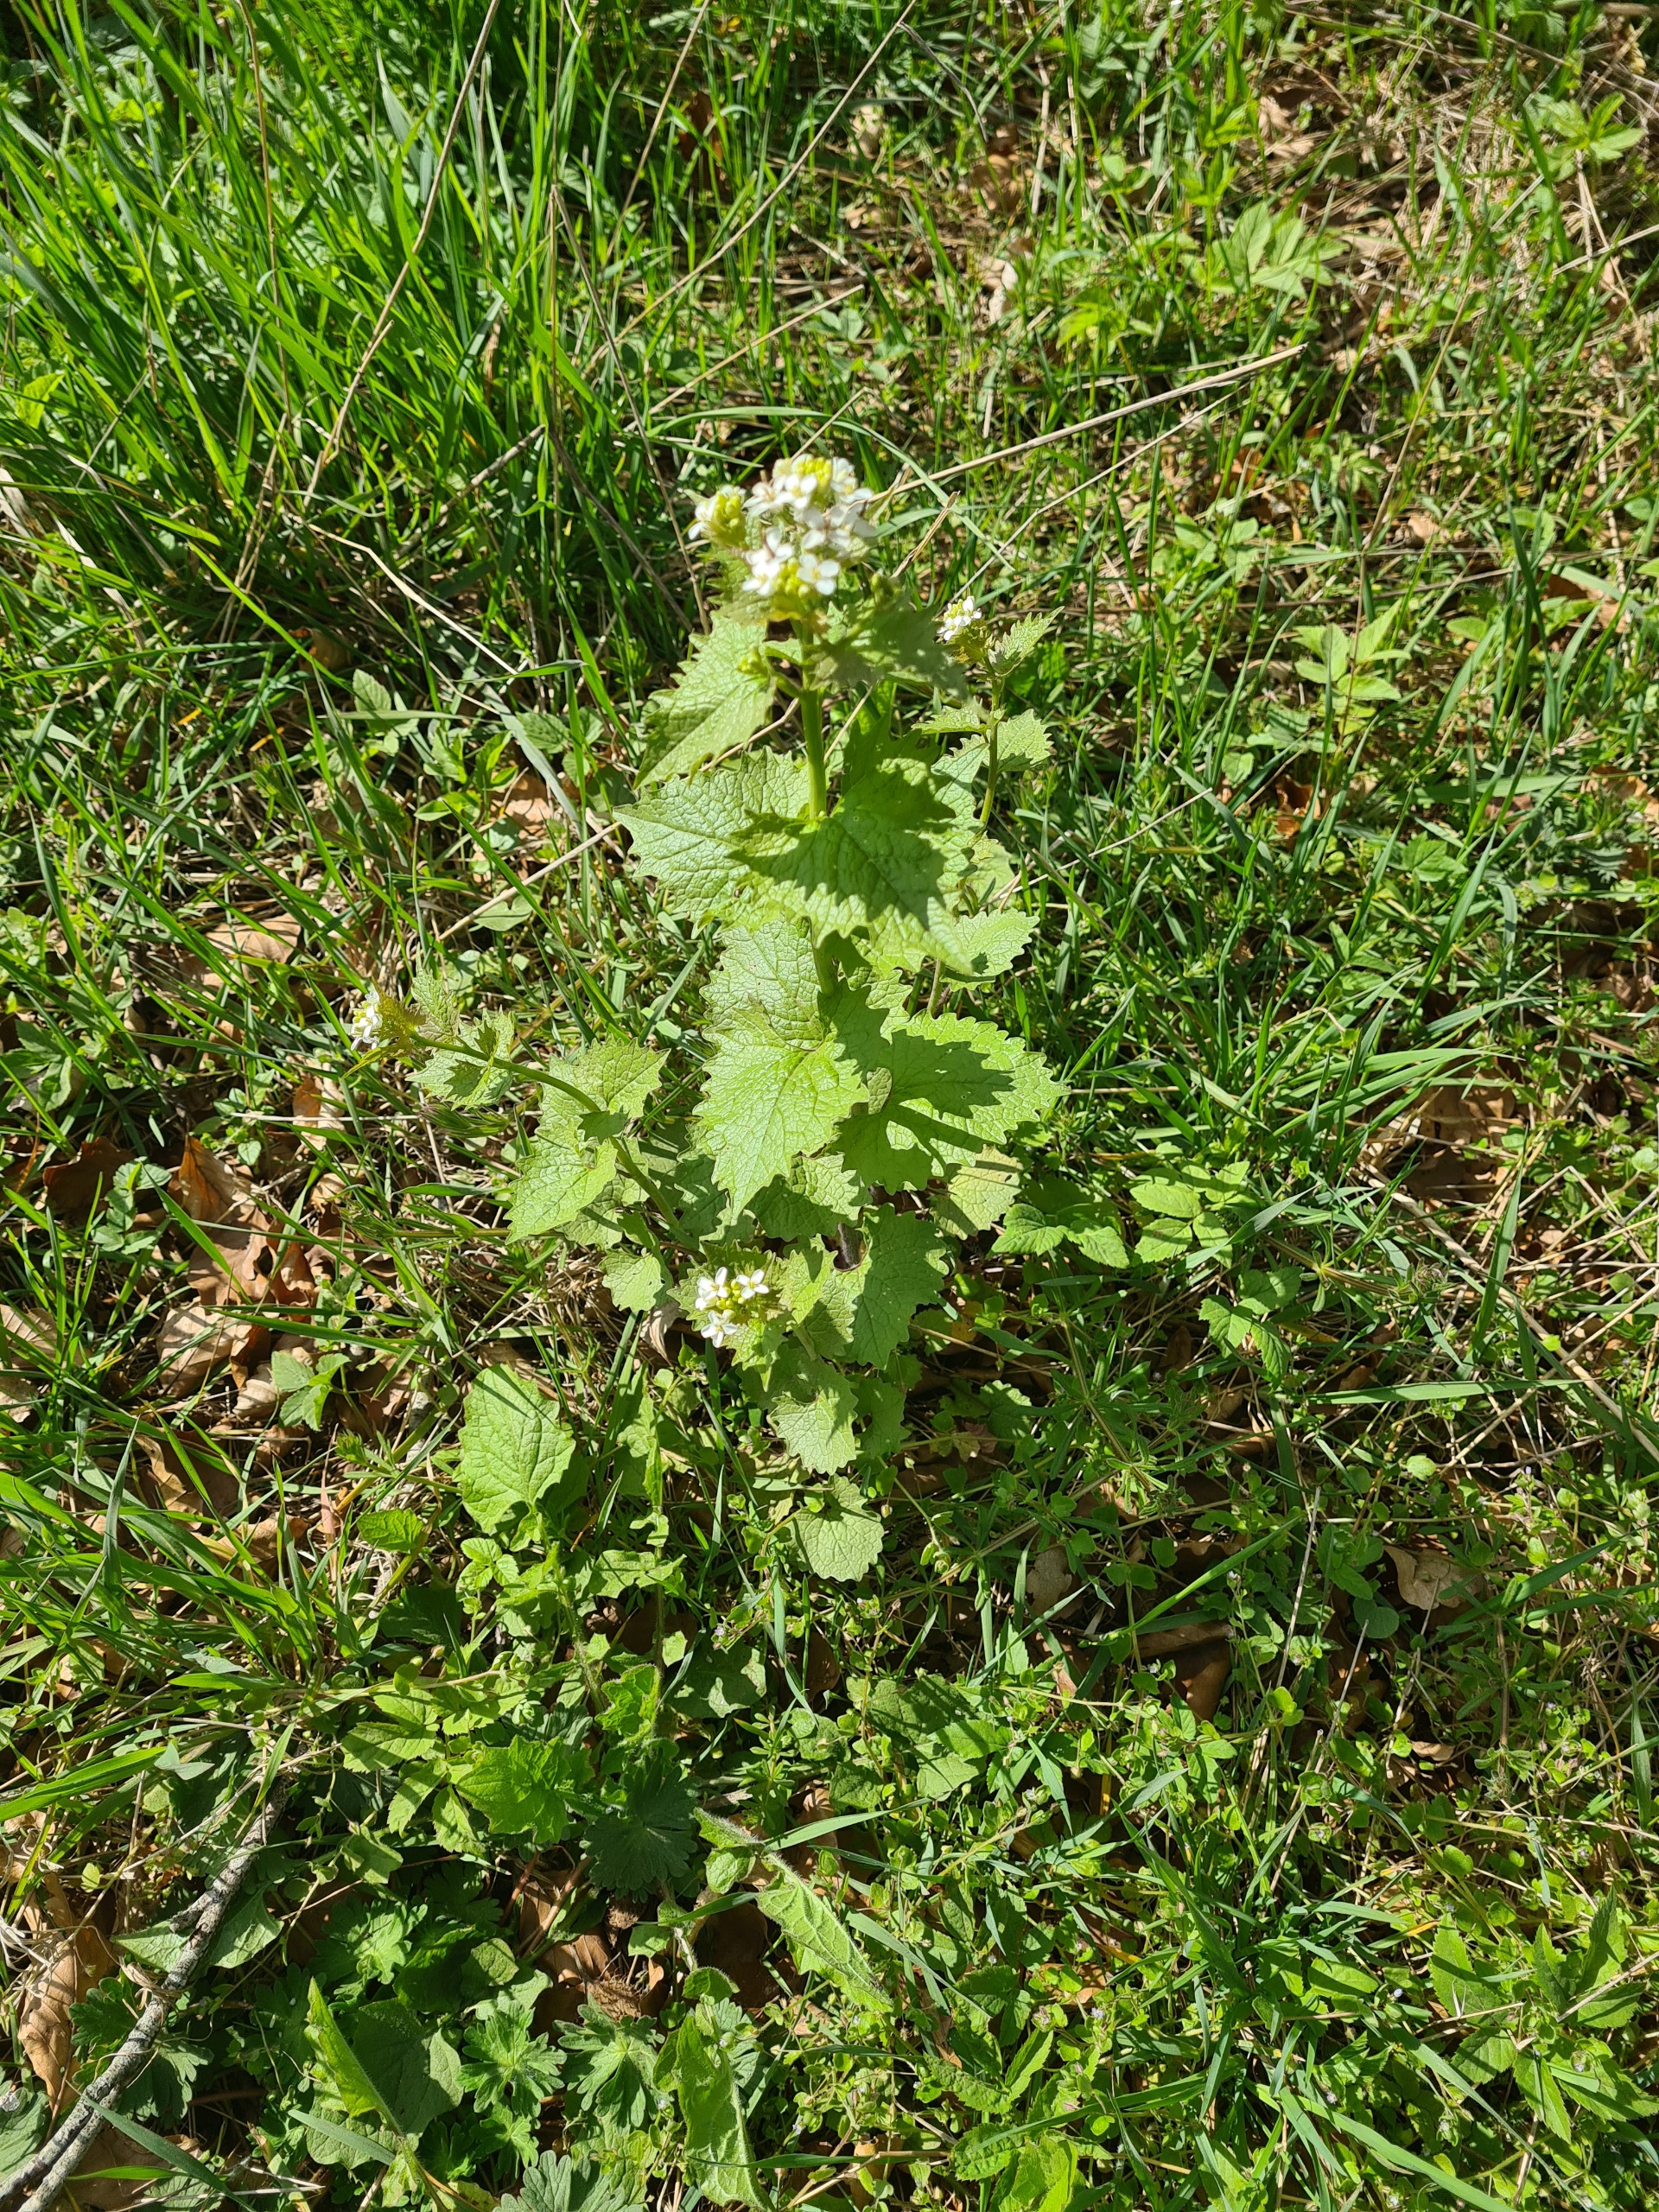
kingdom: Plantae
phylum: Tracheophyta
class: Magnoliopsida
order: Brassicales
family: Brassicaceae
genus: Alliaria
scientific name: Alliaria petiolata
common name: Løgkarse
